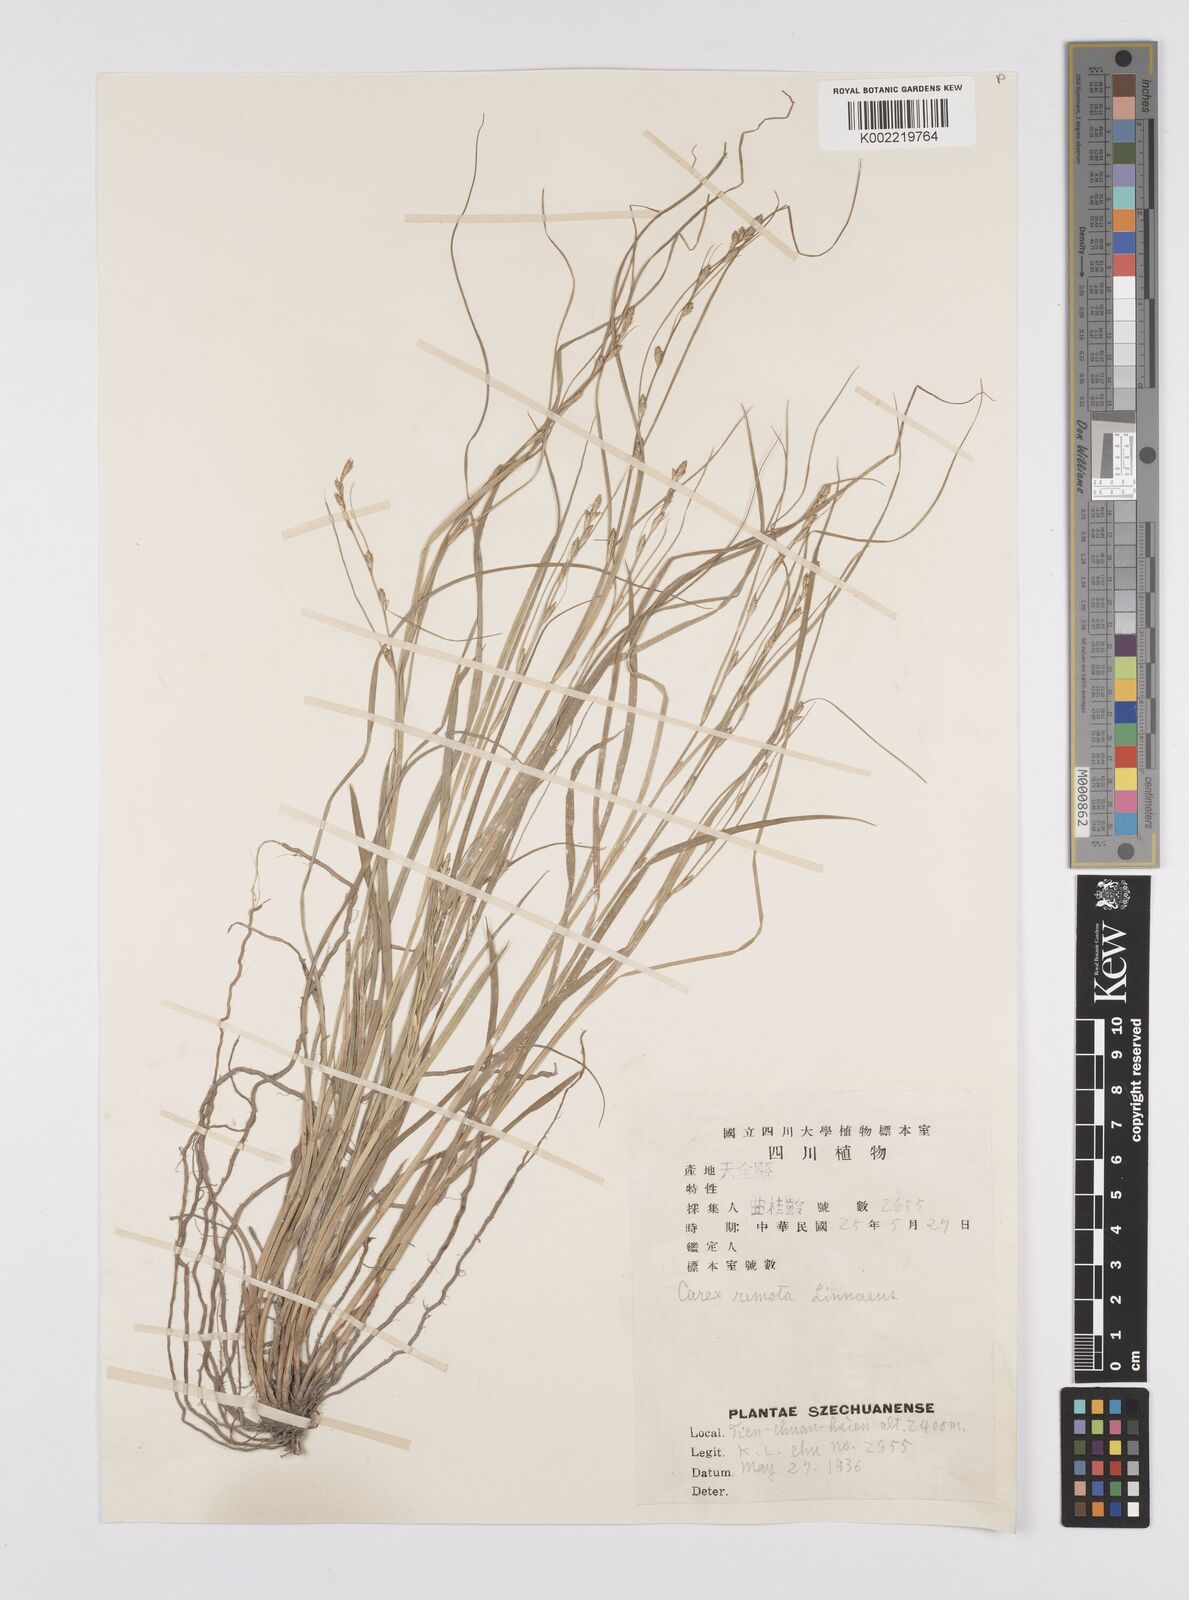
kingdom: Plantae
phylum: Tracheophyta
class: Liliopsida
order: Poales
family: Cyperaceae
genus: Carex
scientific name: Carex remota
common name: Remote sedge
